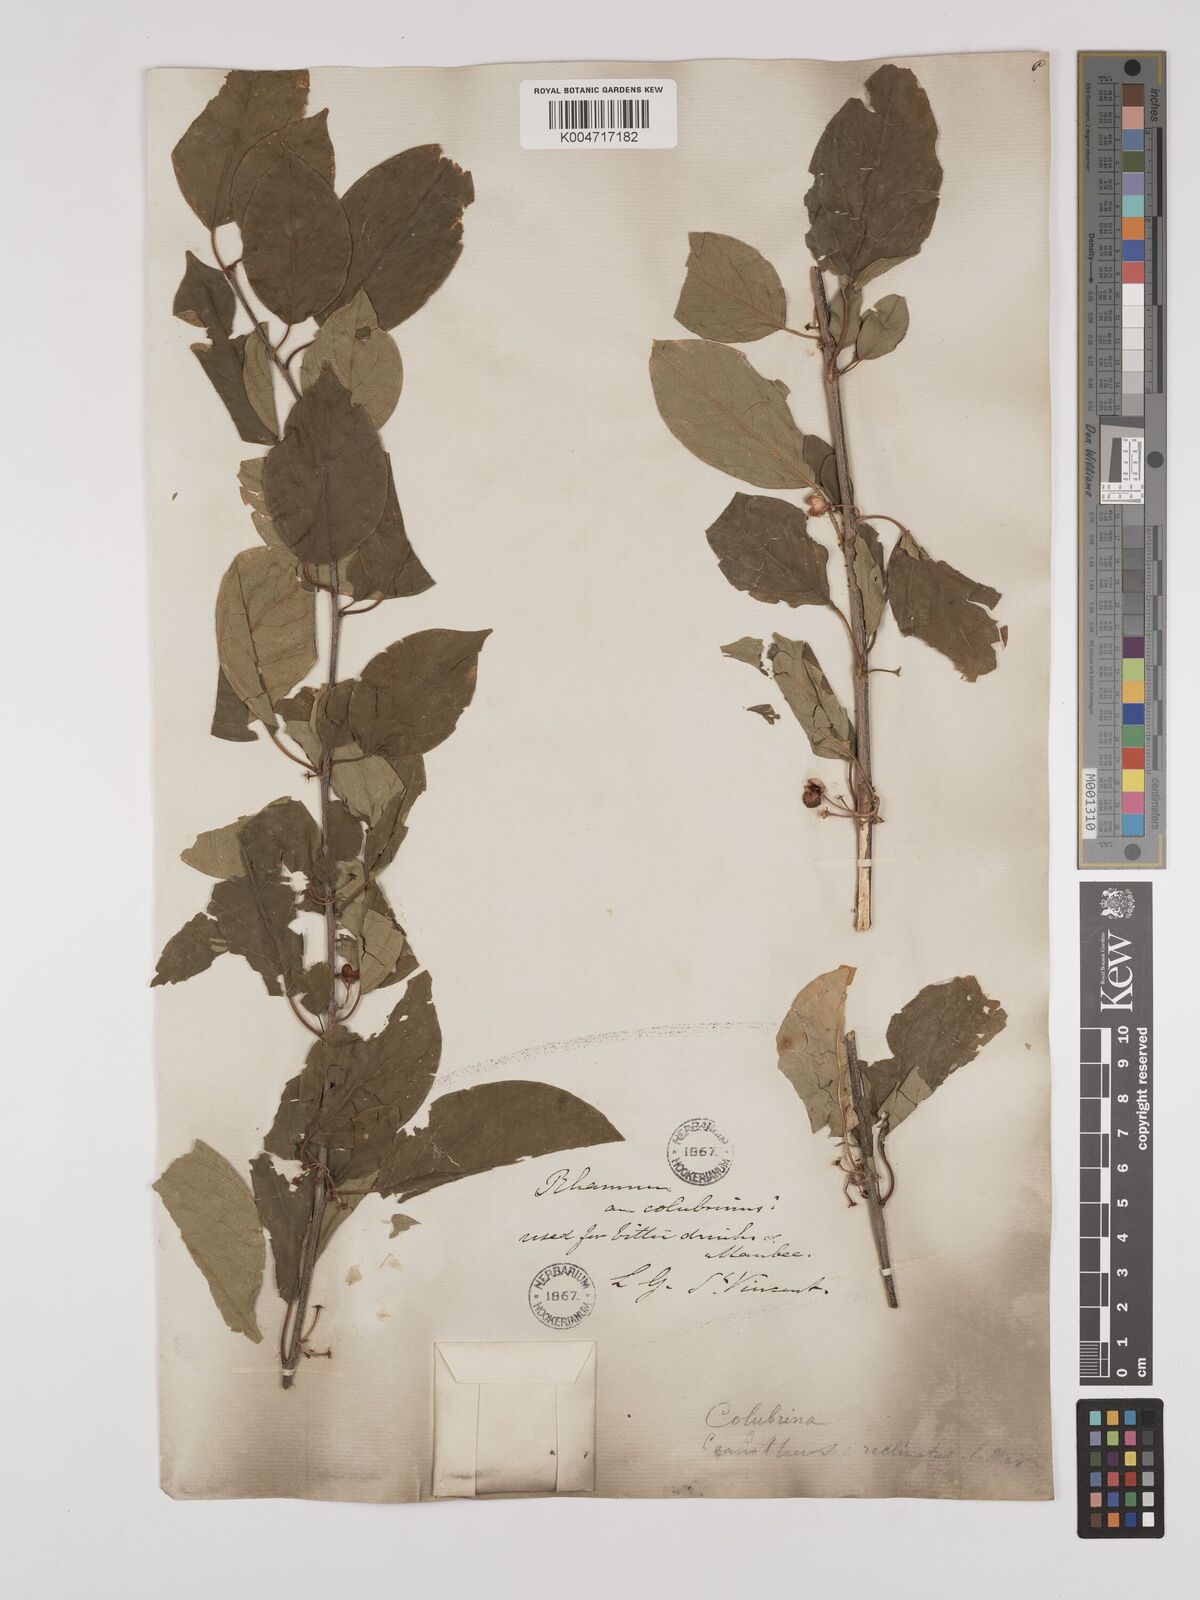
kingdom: Plantae
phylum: Tracheophyta
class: Magnoliopsida
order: Rosales
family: Rhamnaceae
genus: Colubrina
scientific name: Colubrina elliptica
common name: Soldierwood
